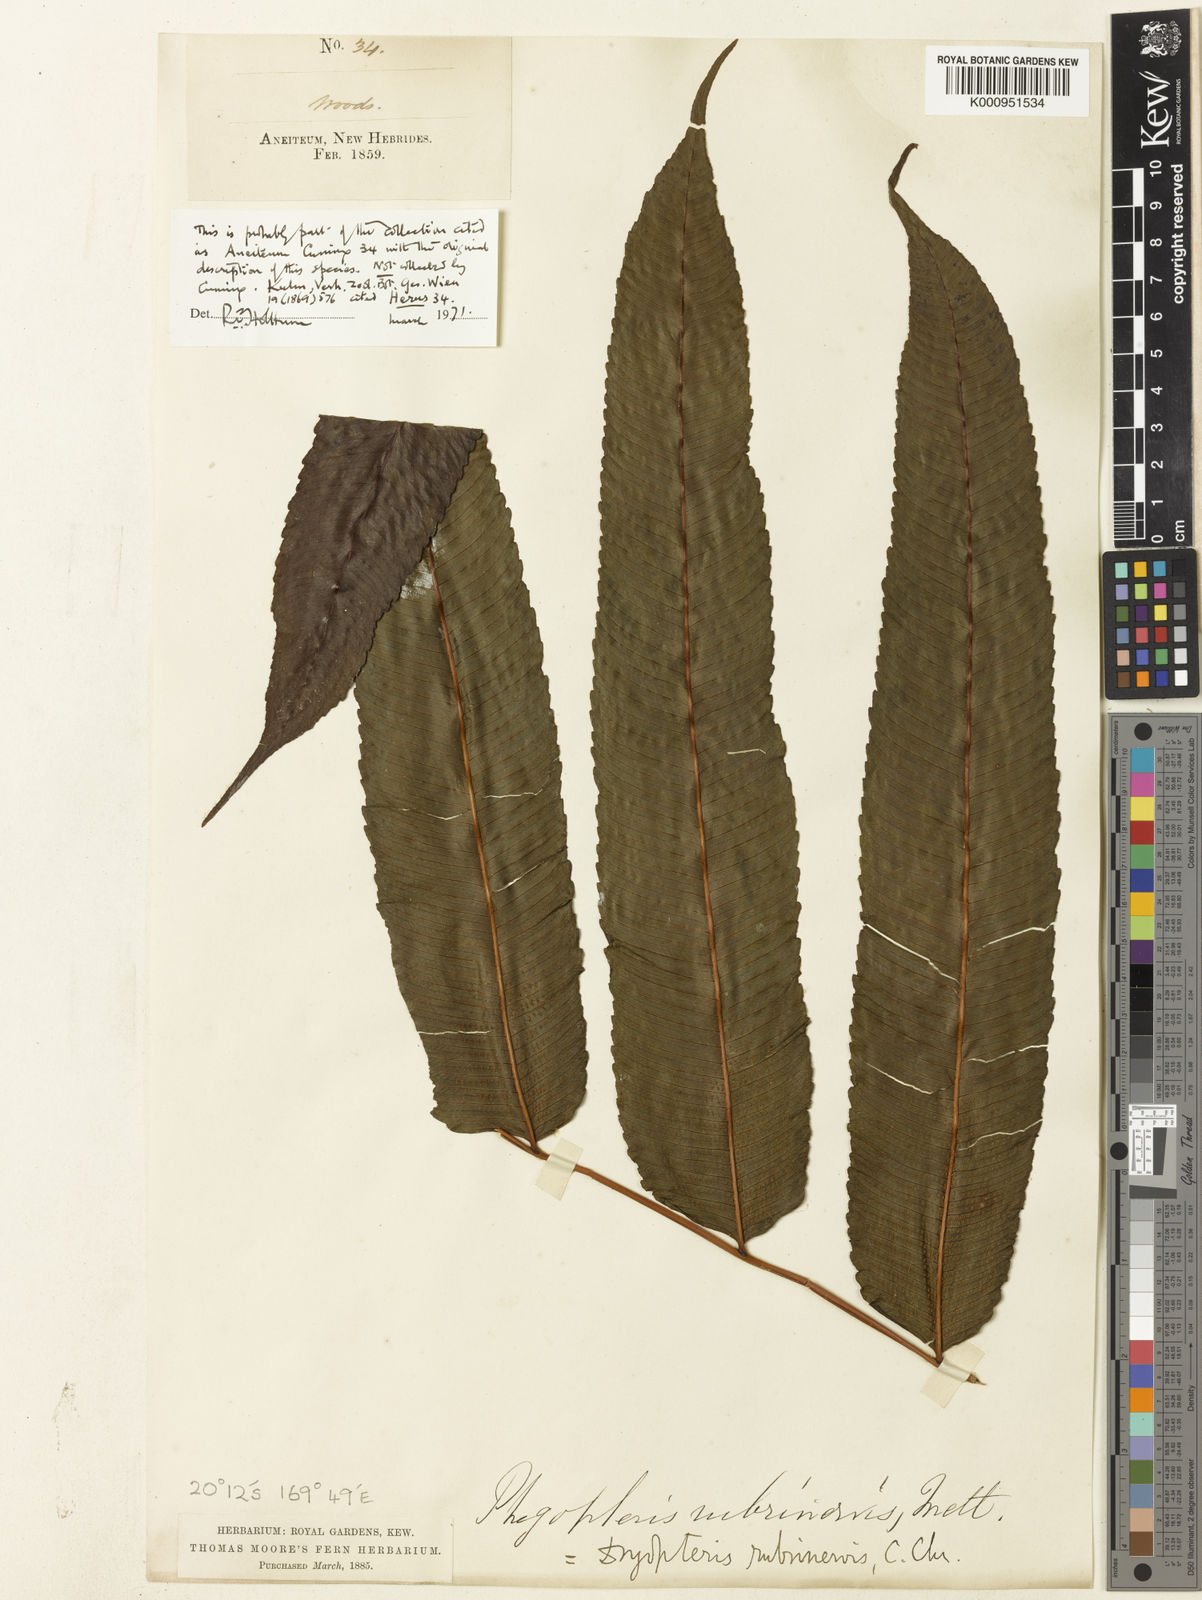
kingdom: Plantae
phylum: Tracheophyta
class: Polypodiopsida
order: Polypodiales
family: Thelypteridaceae
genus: Pronephrium
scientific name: Pronephrium
